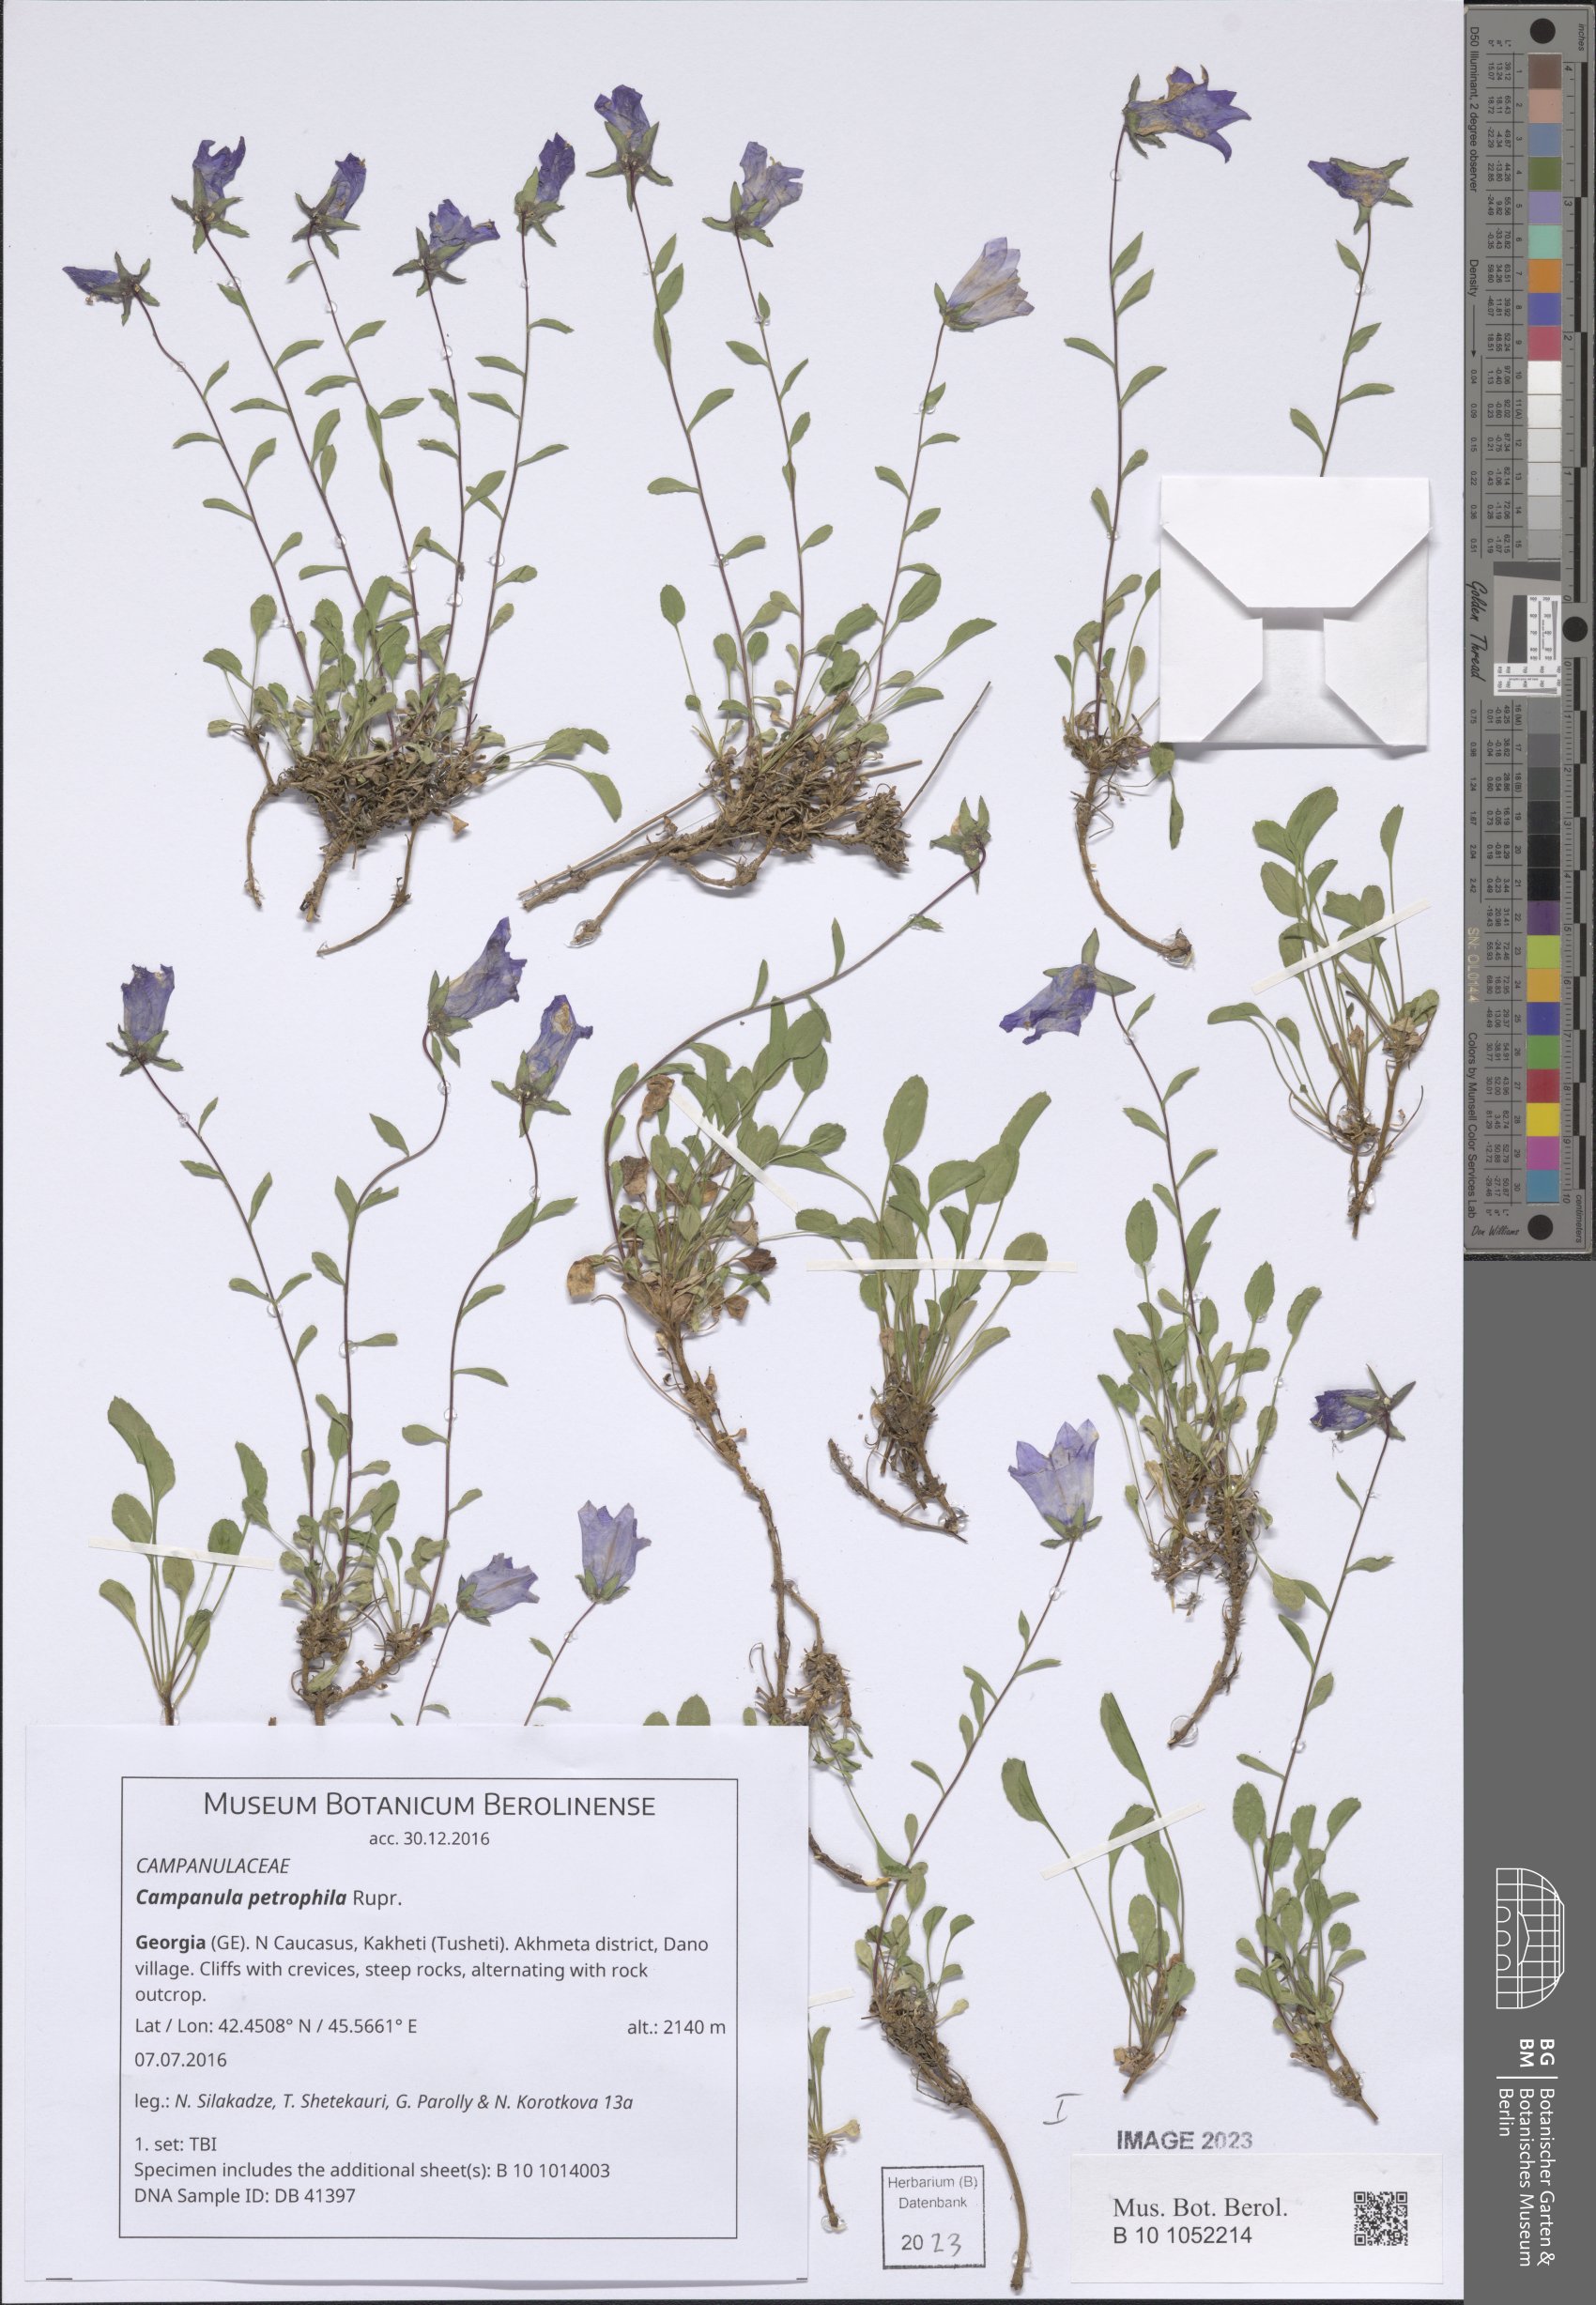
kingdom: Plantae
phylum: Tracheophyta
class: Magnoliopsida
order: Asterales
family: Campanulaceae
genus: Campanula
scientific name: Campanula petrophila
